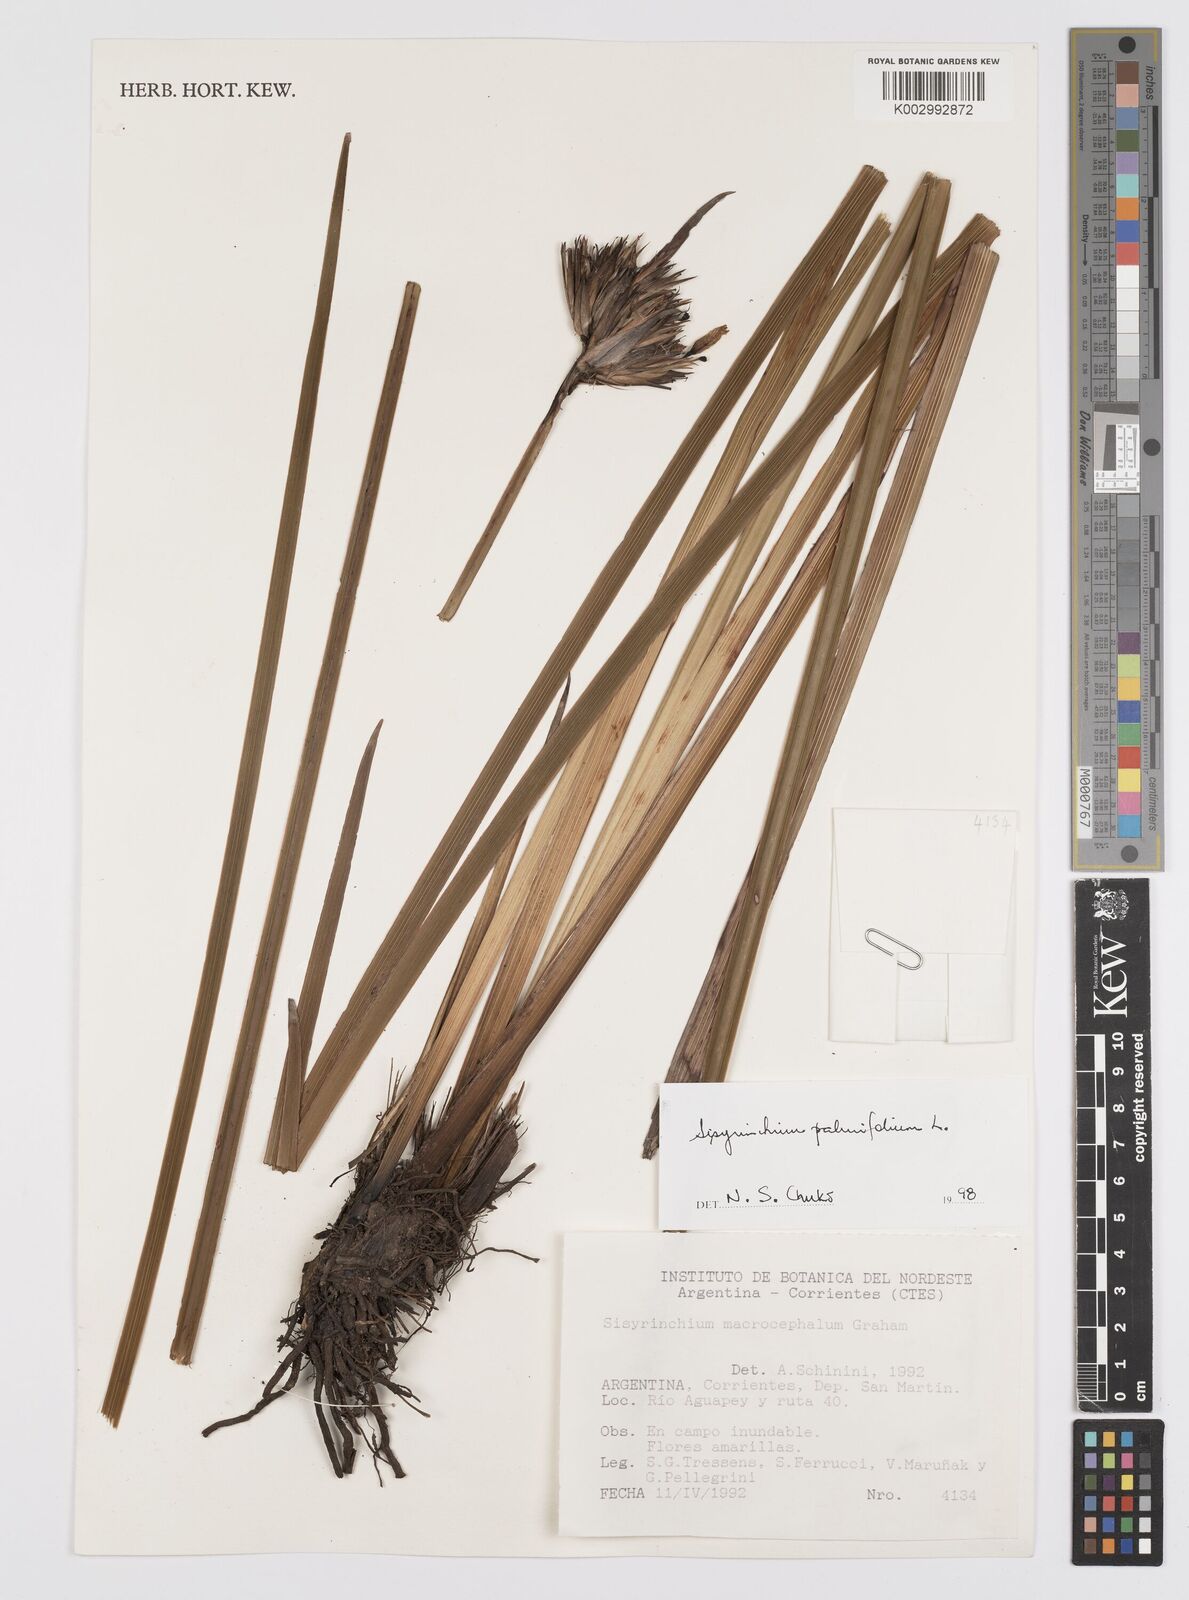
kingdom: Plantae
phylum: Tracheophyta
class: Liliopsida
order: Asparagales
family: Iridaceae
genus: Sisyrinchium
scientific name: Sisyrinchium palmifolium
